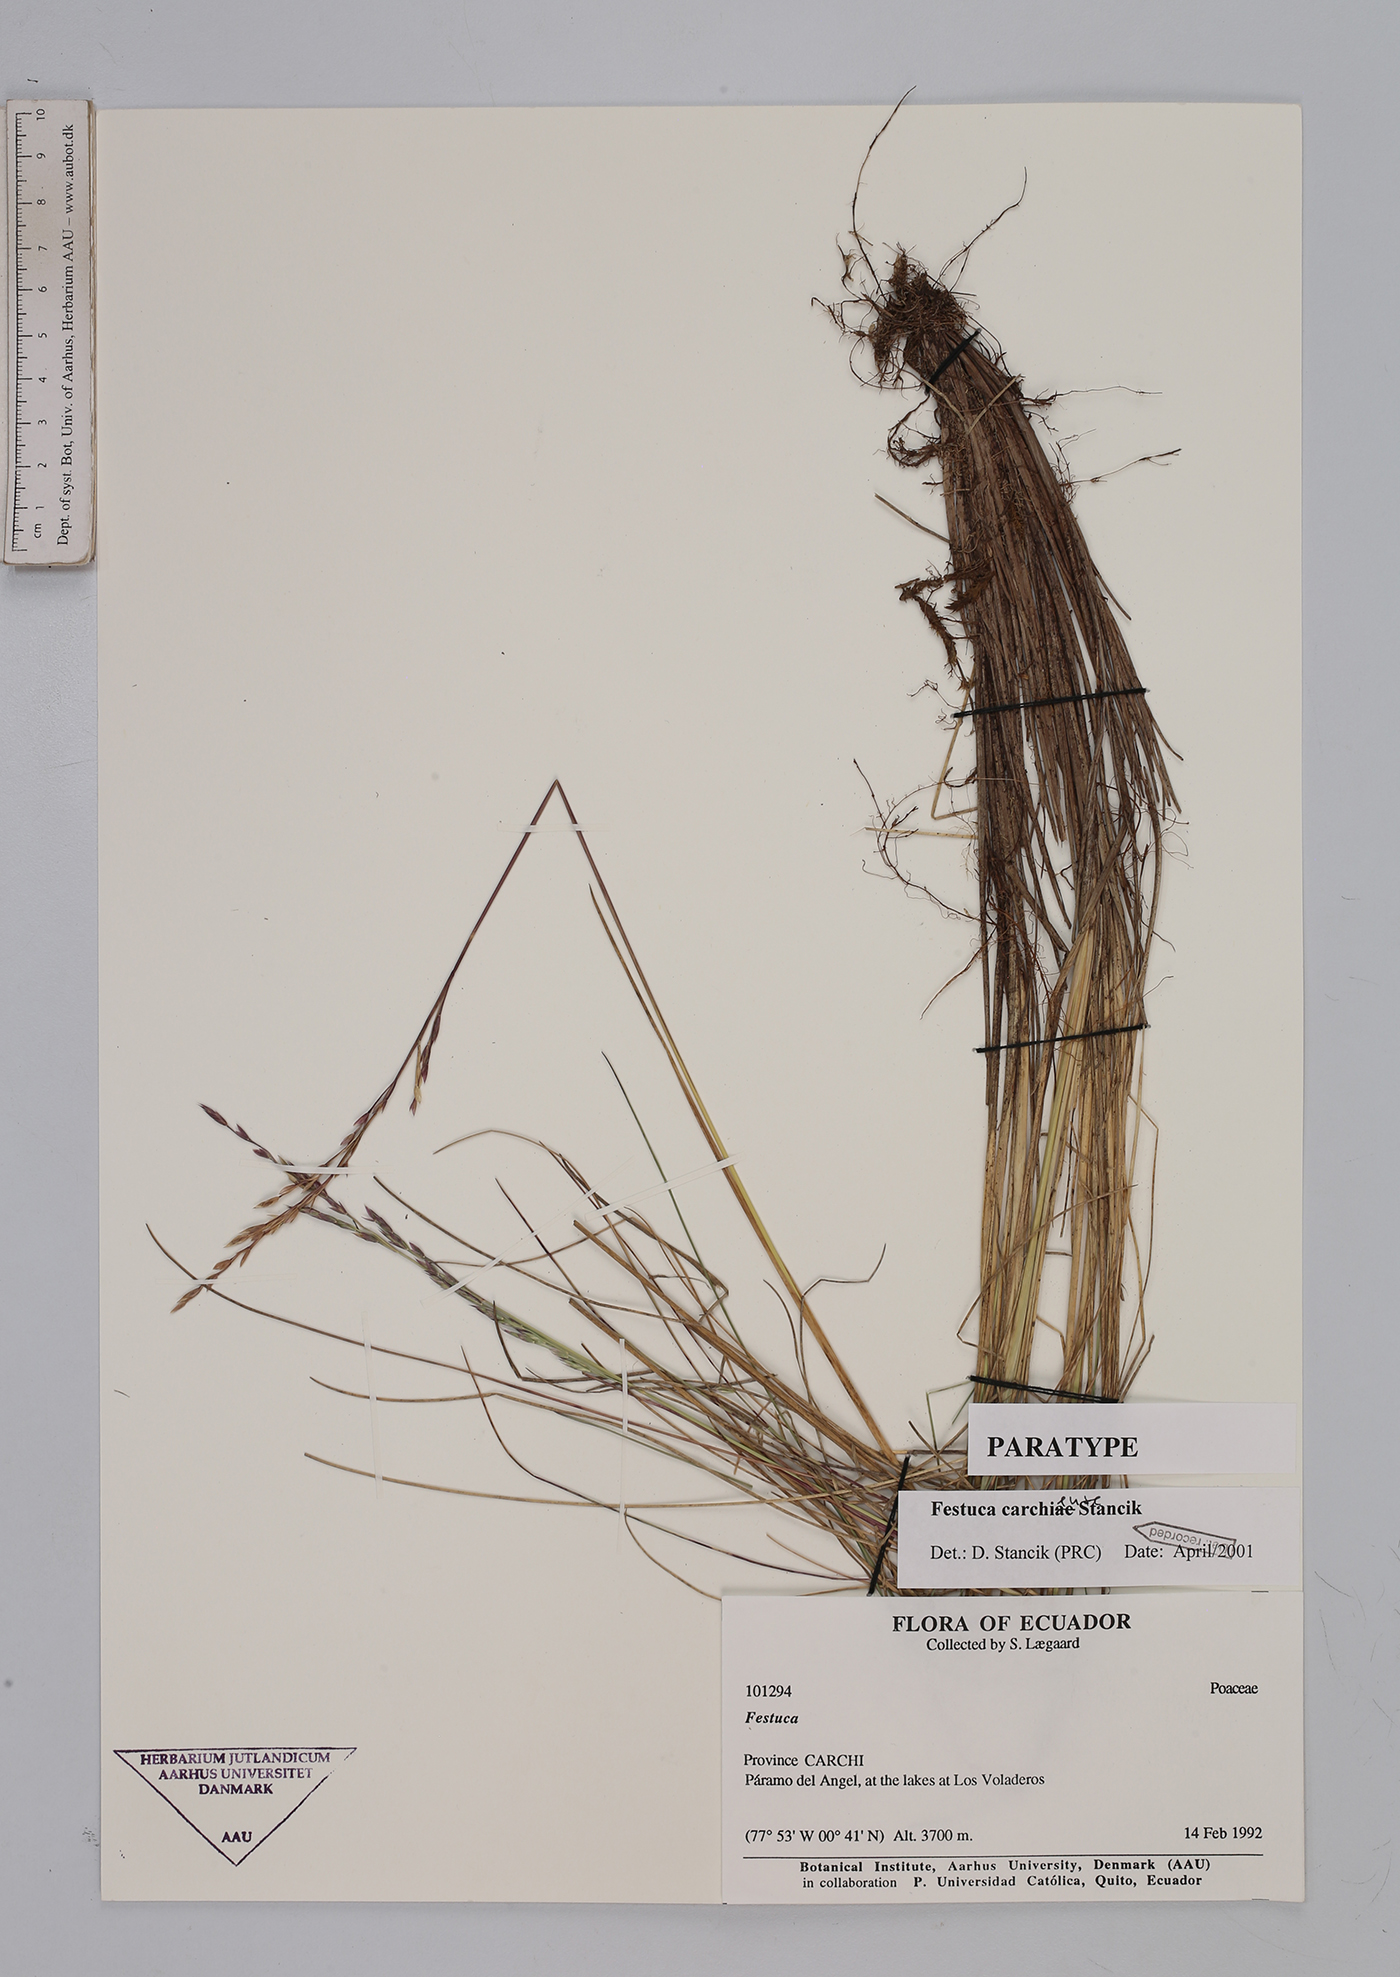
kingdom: Plantae
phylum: Tracheophyta
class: Liliopsida
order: Poales
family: Poaceae
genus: Festuca
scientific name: Festuca carchiensis
